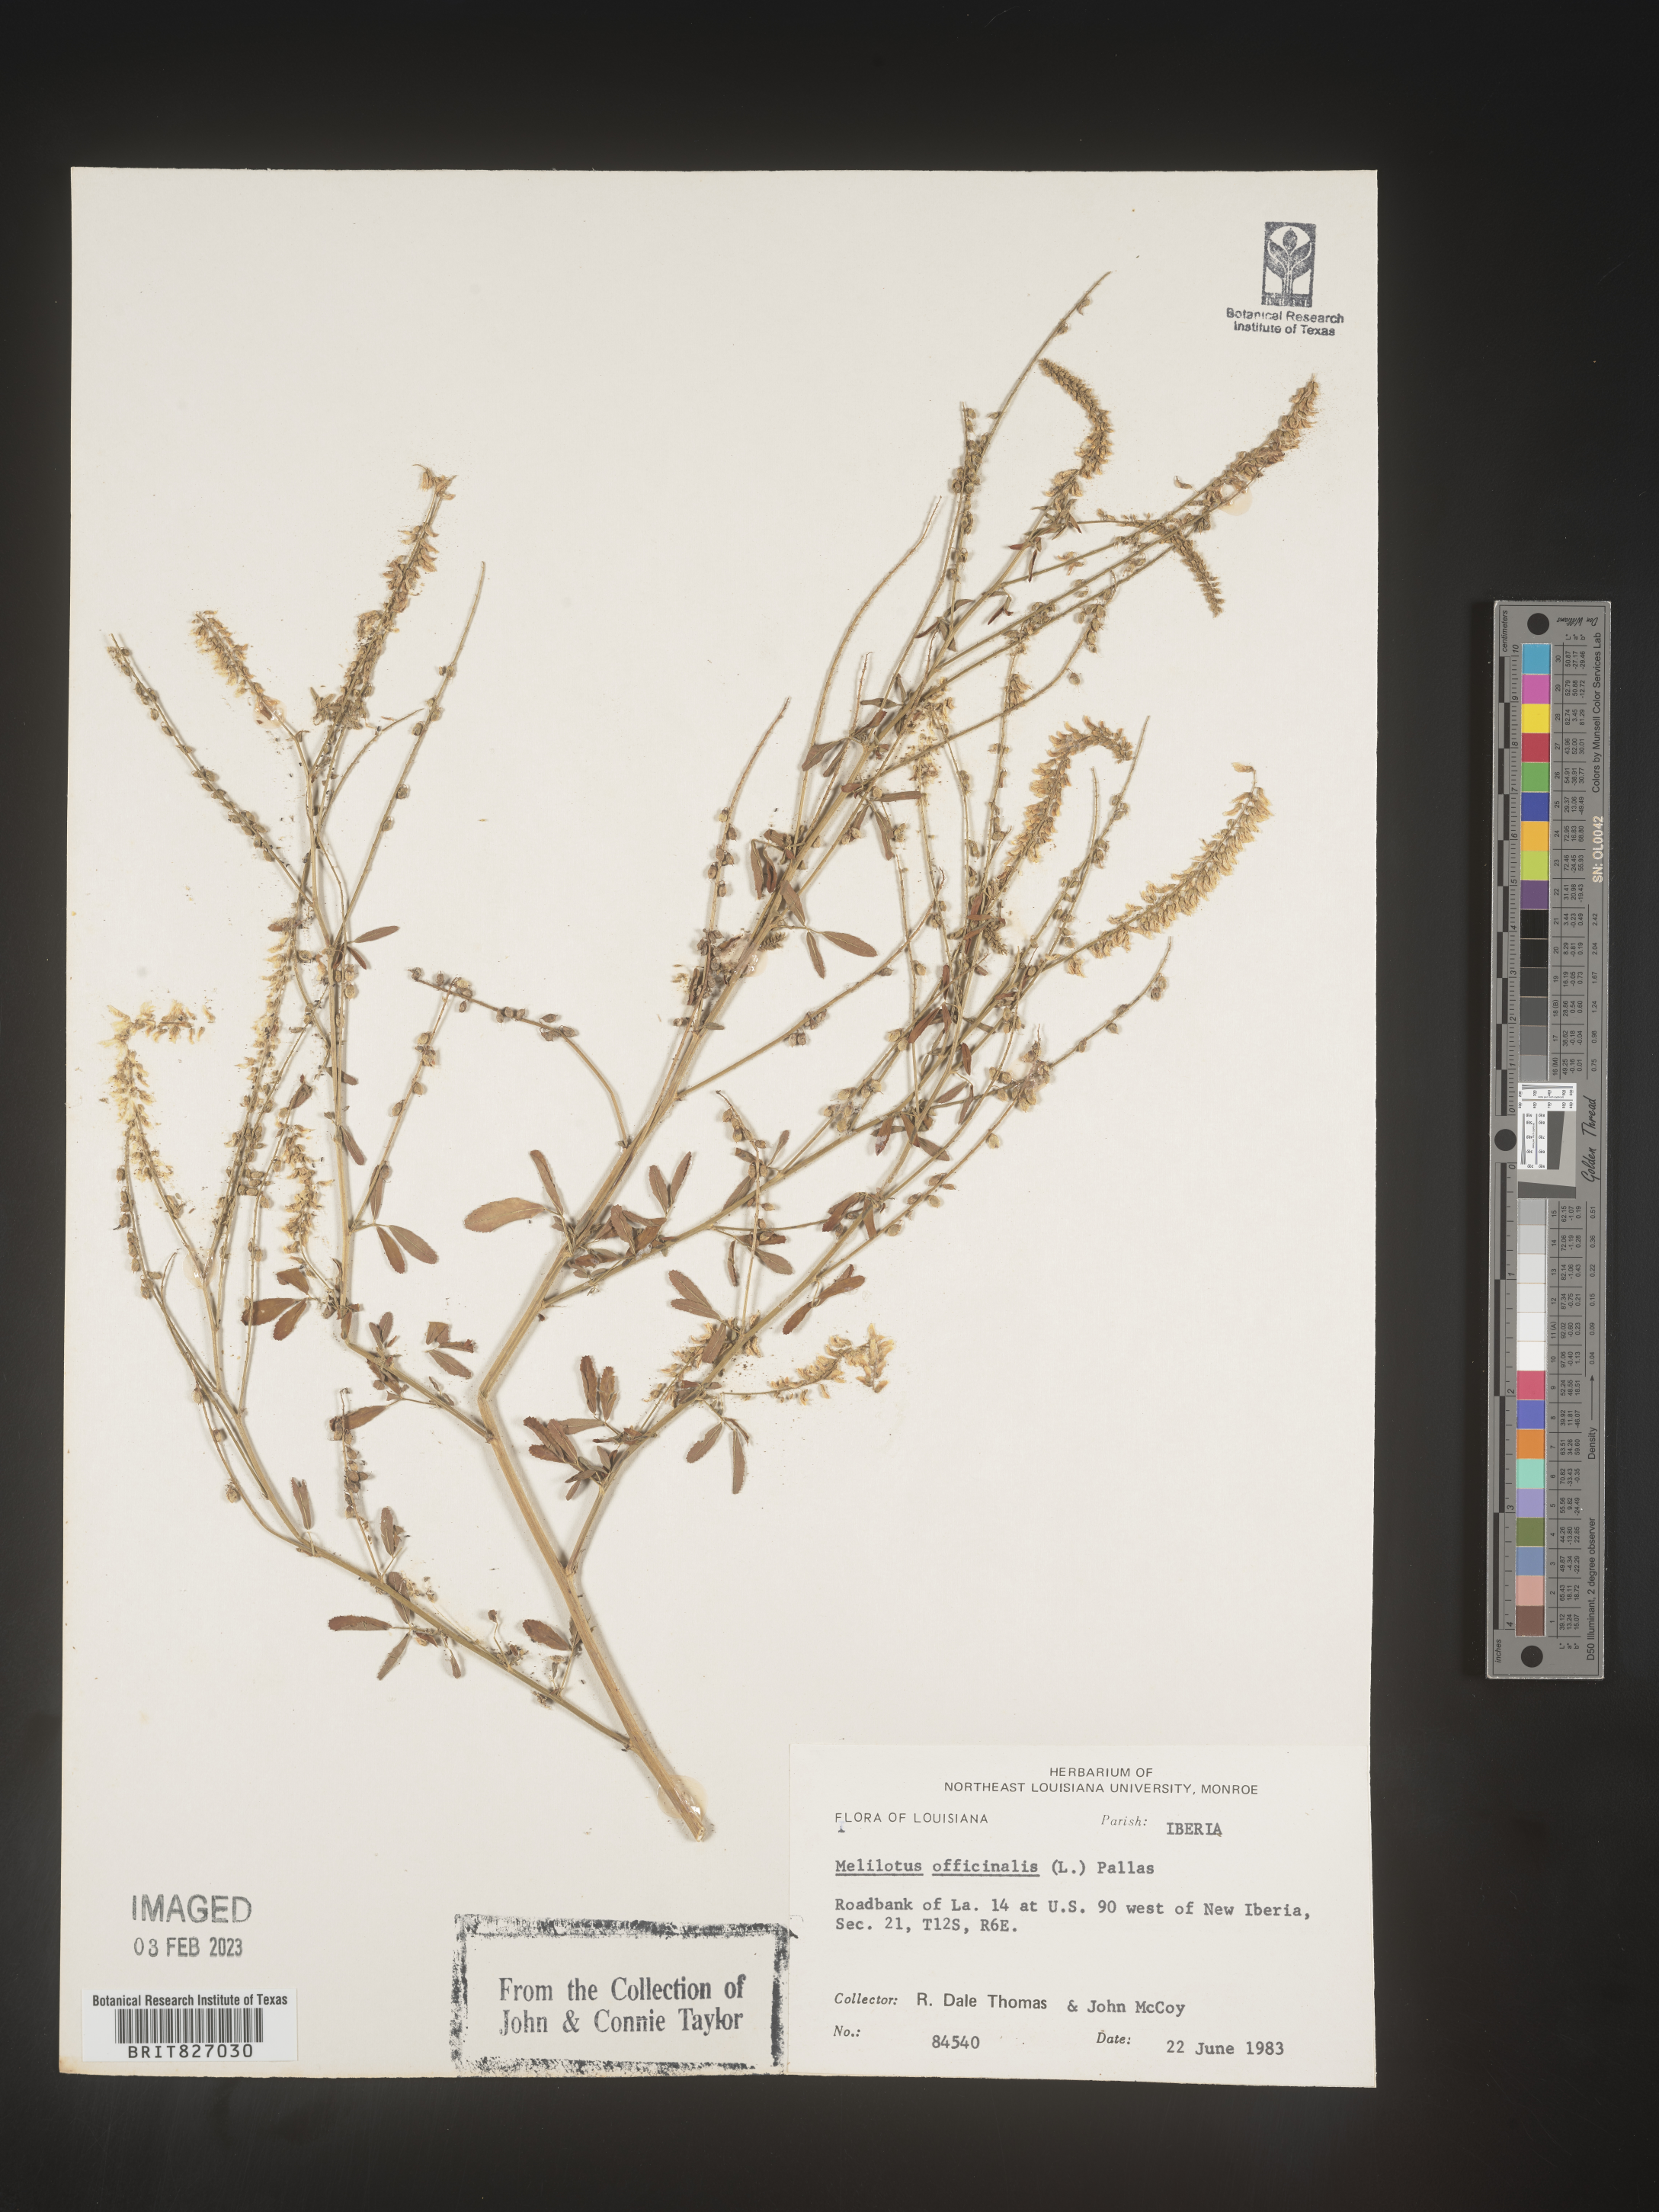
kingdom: Plantae
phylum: Tracheophyta
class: Magnoliopsida
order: Fabales
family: Fabaceae
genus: Melilotus
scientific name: Melilotus officinalis
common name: Sweetclover
